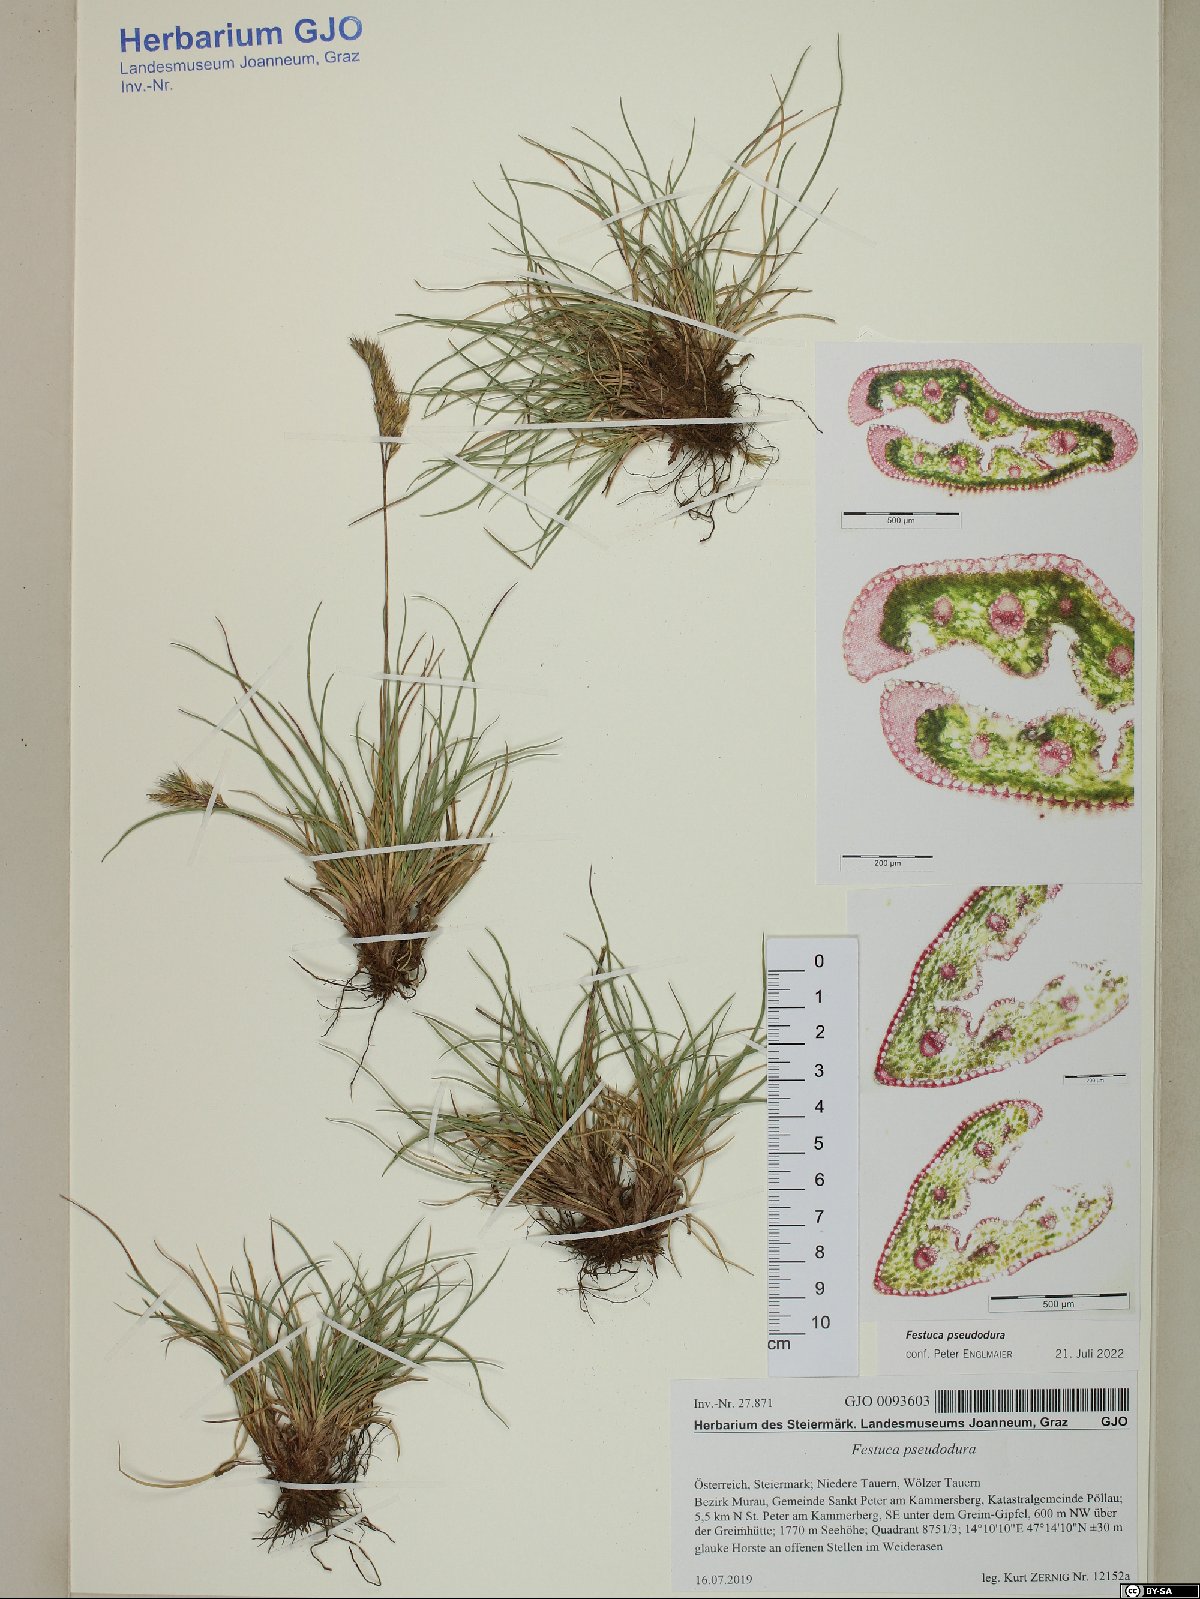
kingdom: Plantae
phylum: Tracheophyta
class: Liliopsida
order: Poales
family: Poaceae
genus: Festuca
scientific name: Festuca pseudodura
